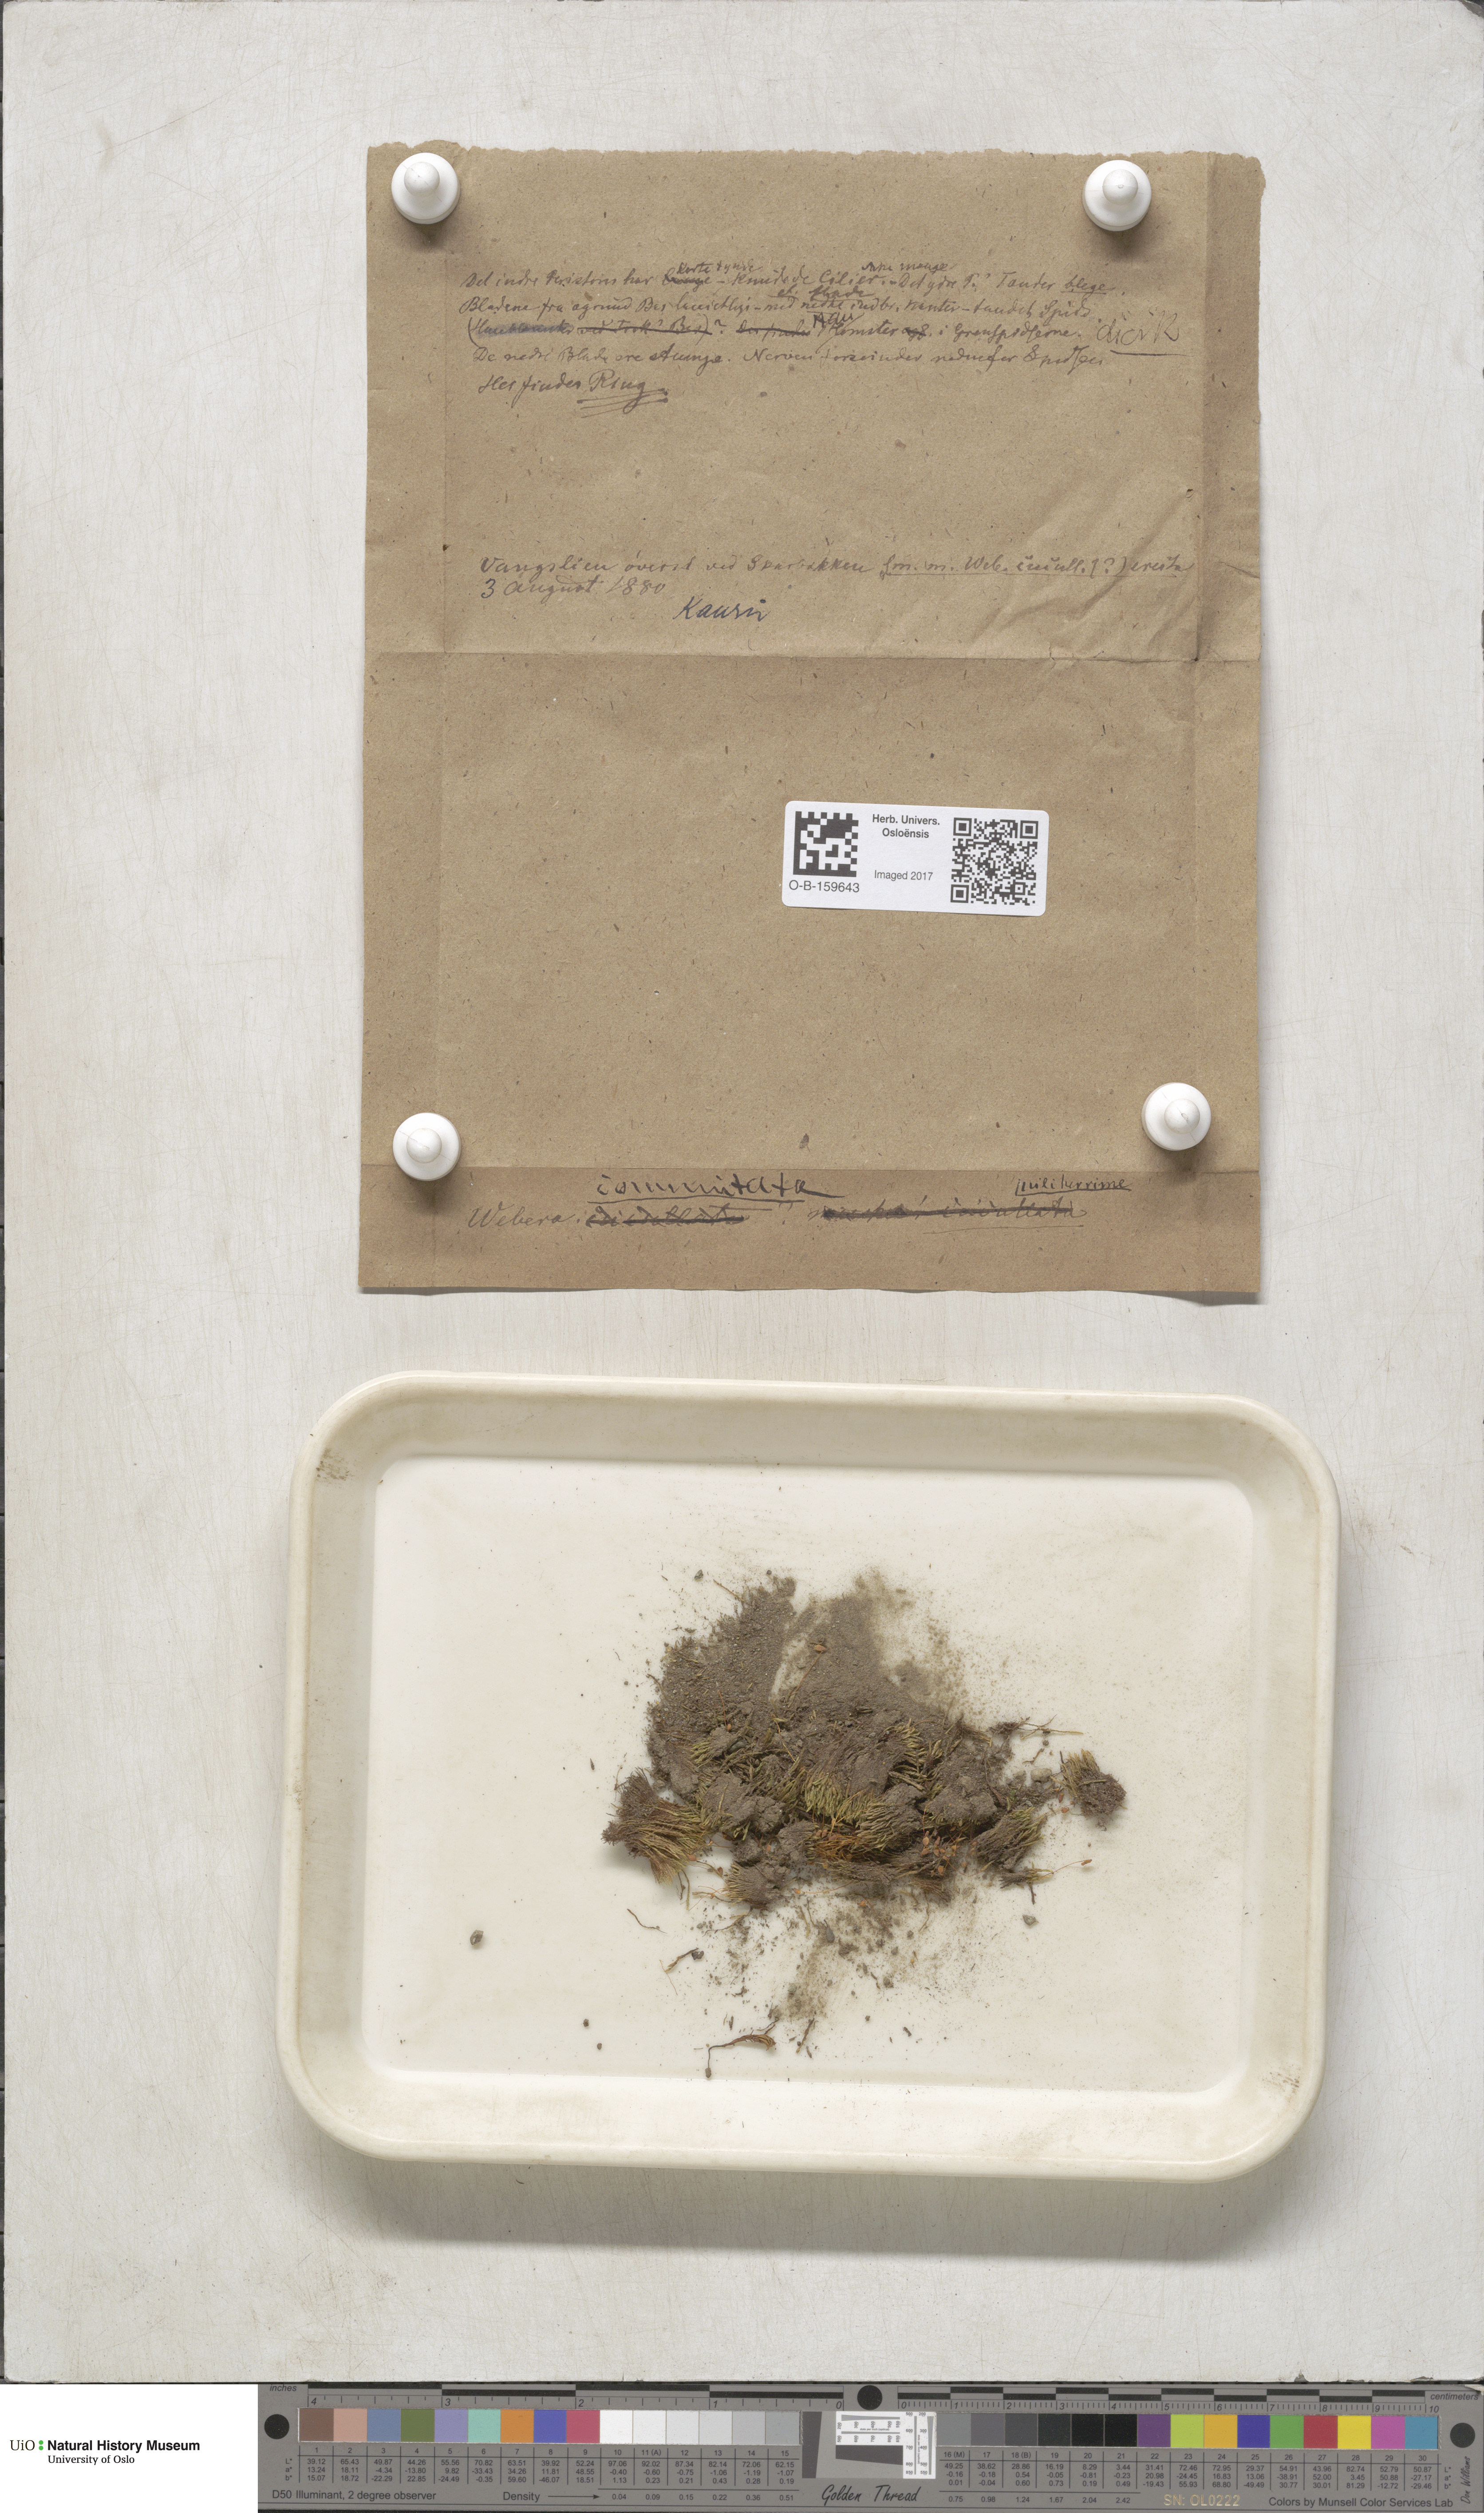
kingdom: Plantae
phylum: Bryophyta
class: Bryopsida
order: Bryales
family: Mniaceae
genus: Pohlia
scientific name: Pohlia drummondii
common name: Drummond's nodding moss
